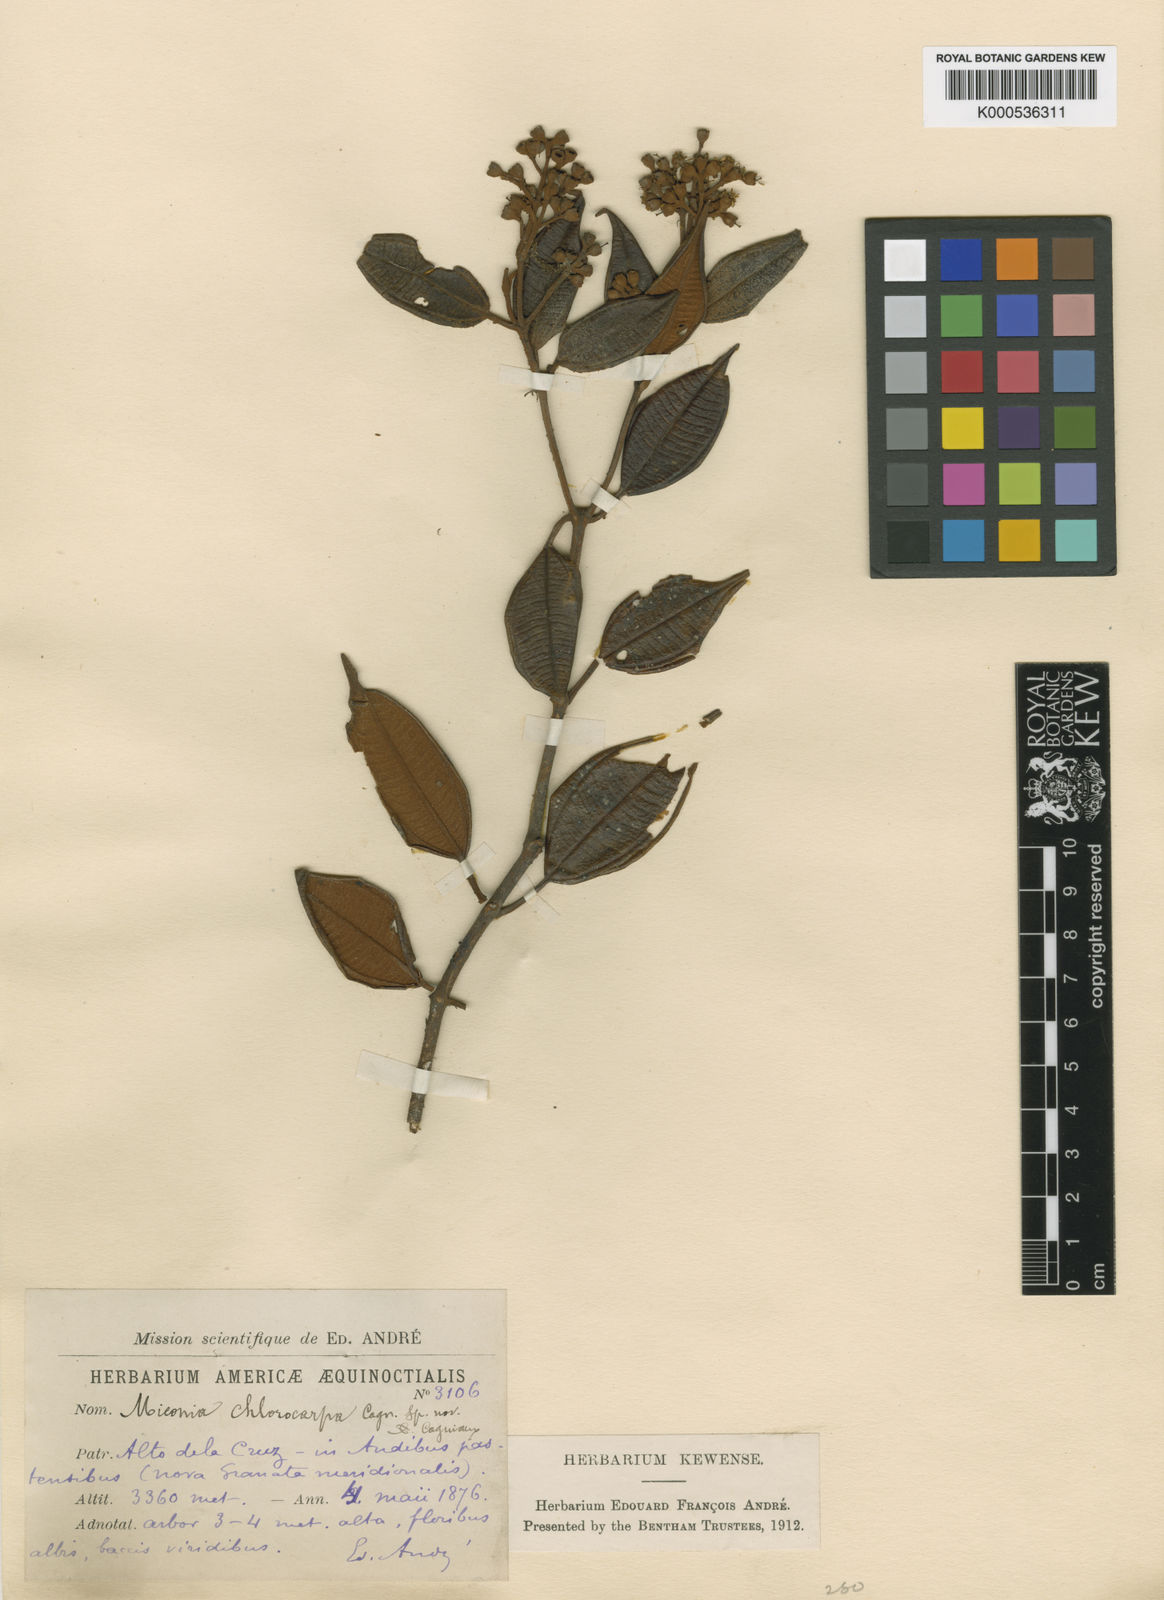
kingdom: Plantae
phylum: Tracheophyta
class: Magnoliopsida
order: Myrtales
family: Melastomataceae
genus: Miconia
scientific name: Miconia chlorocarpa
